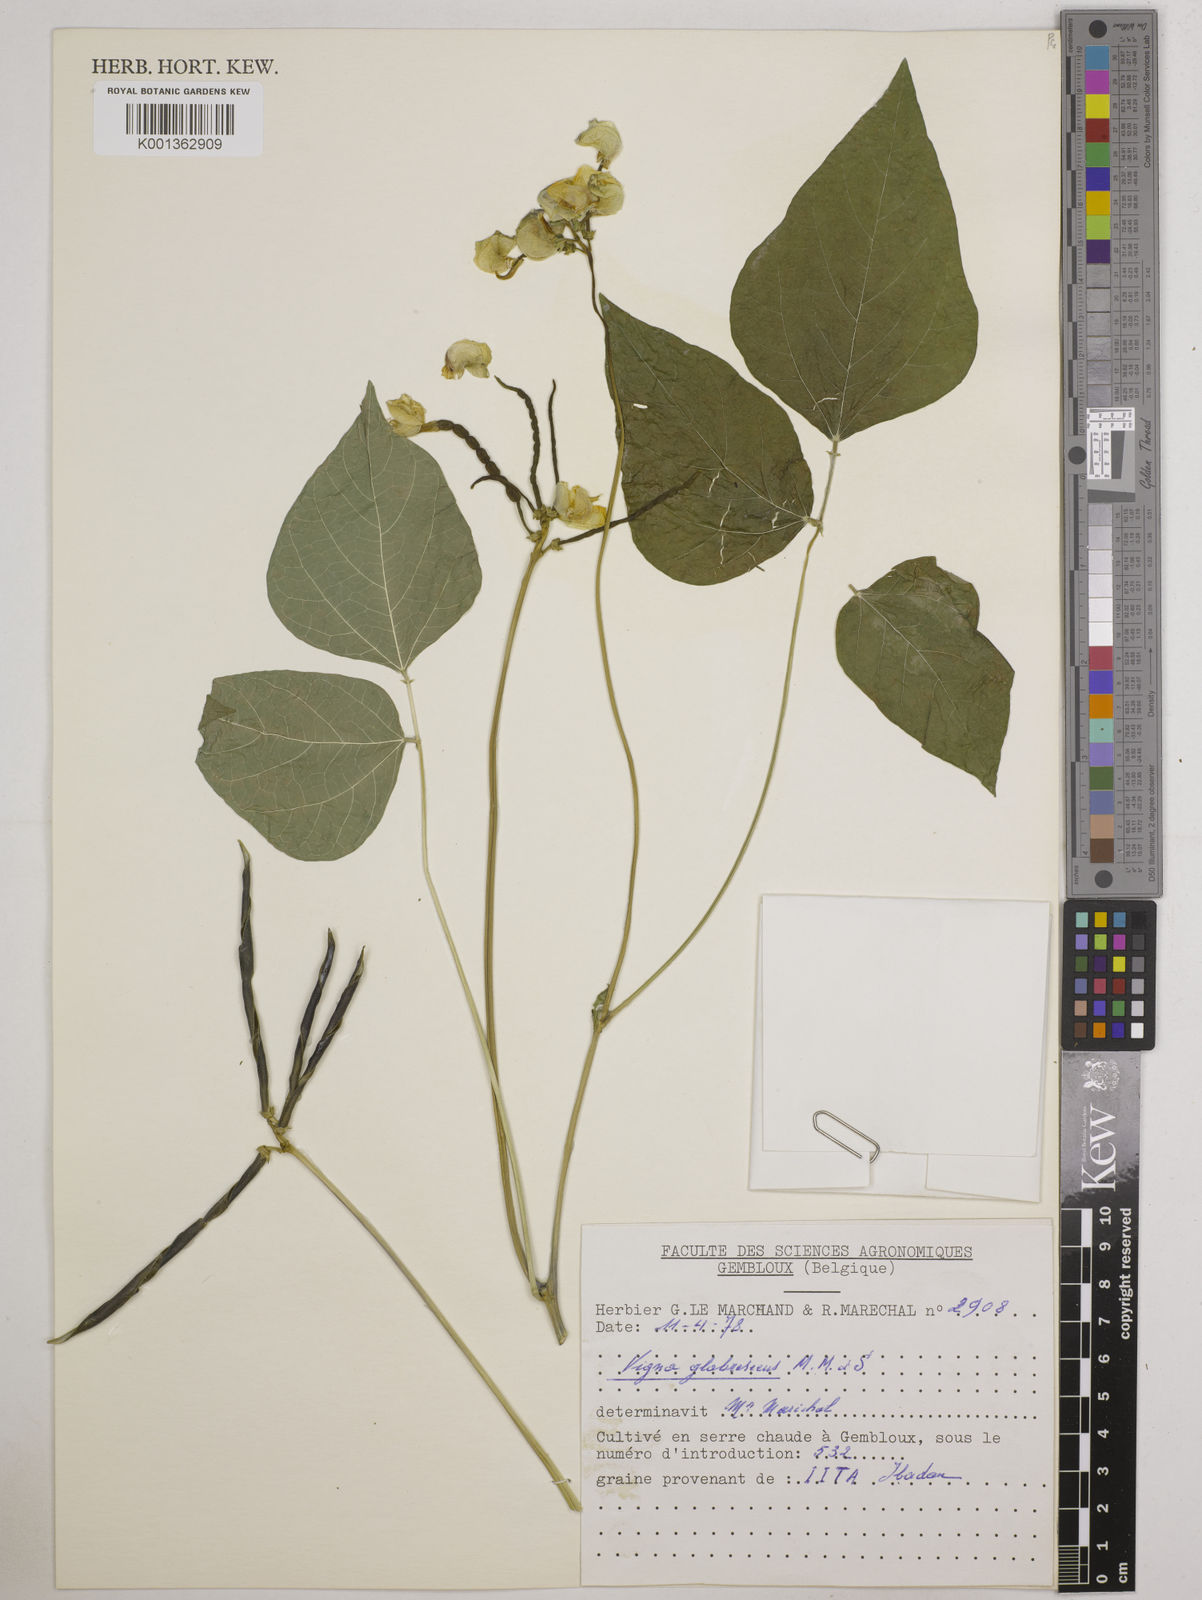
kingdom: Plantae
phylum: Tracheophyta
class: Magnoliopsida
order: Fabales
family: Fabaceae
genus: Vigna
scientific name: Vigna glabrescens
